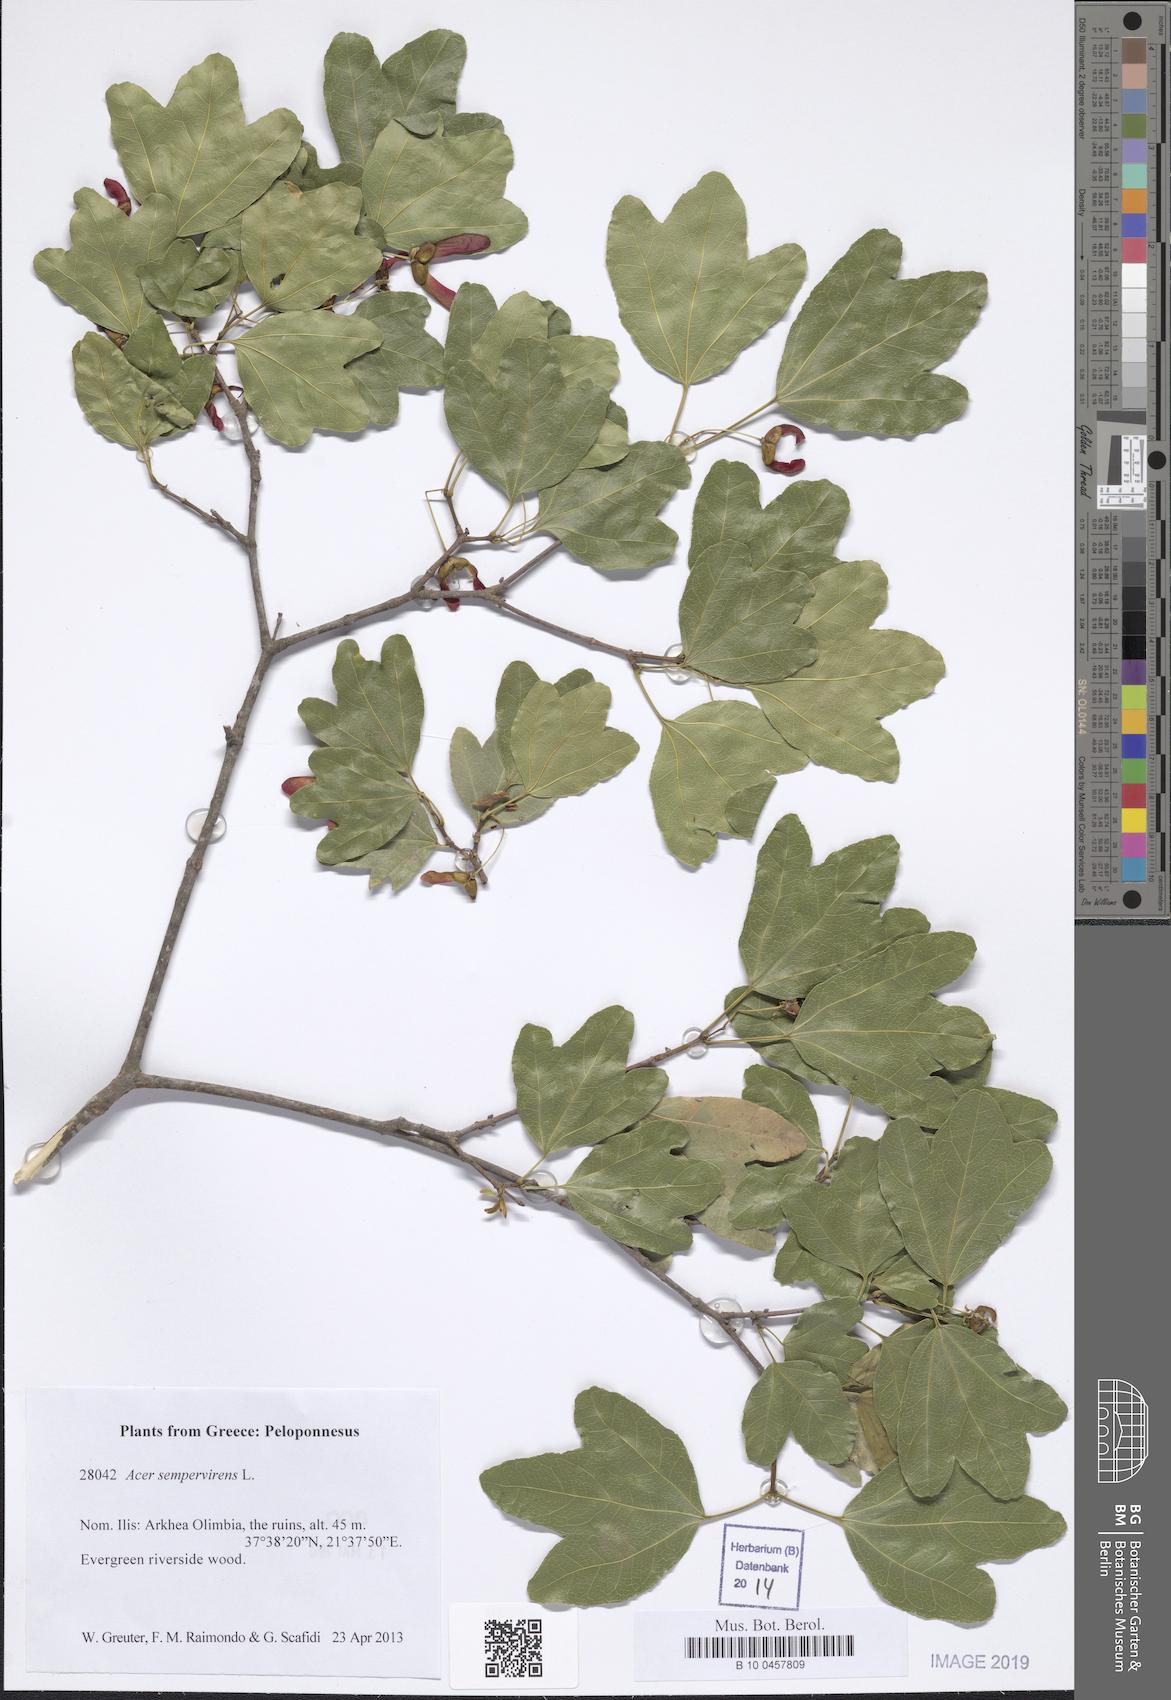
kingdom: Plantae
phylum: Tracheophyta
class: Magnoliopsida
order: Sapindales
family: Sapindaceae
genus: Acer
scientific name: Acer sempervirens
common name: Cretan maple
